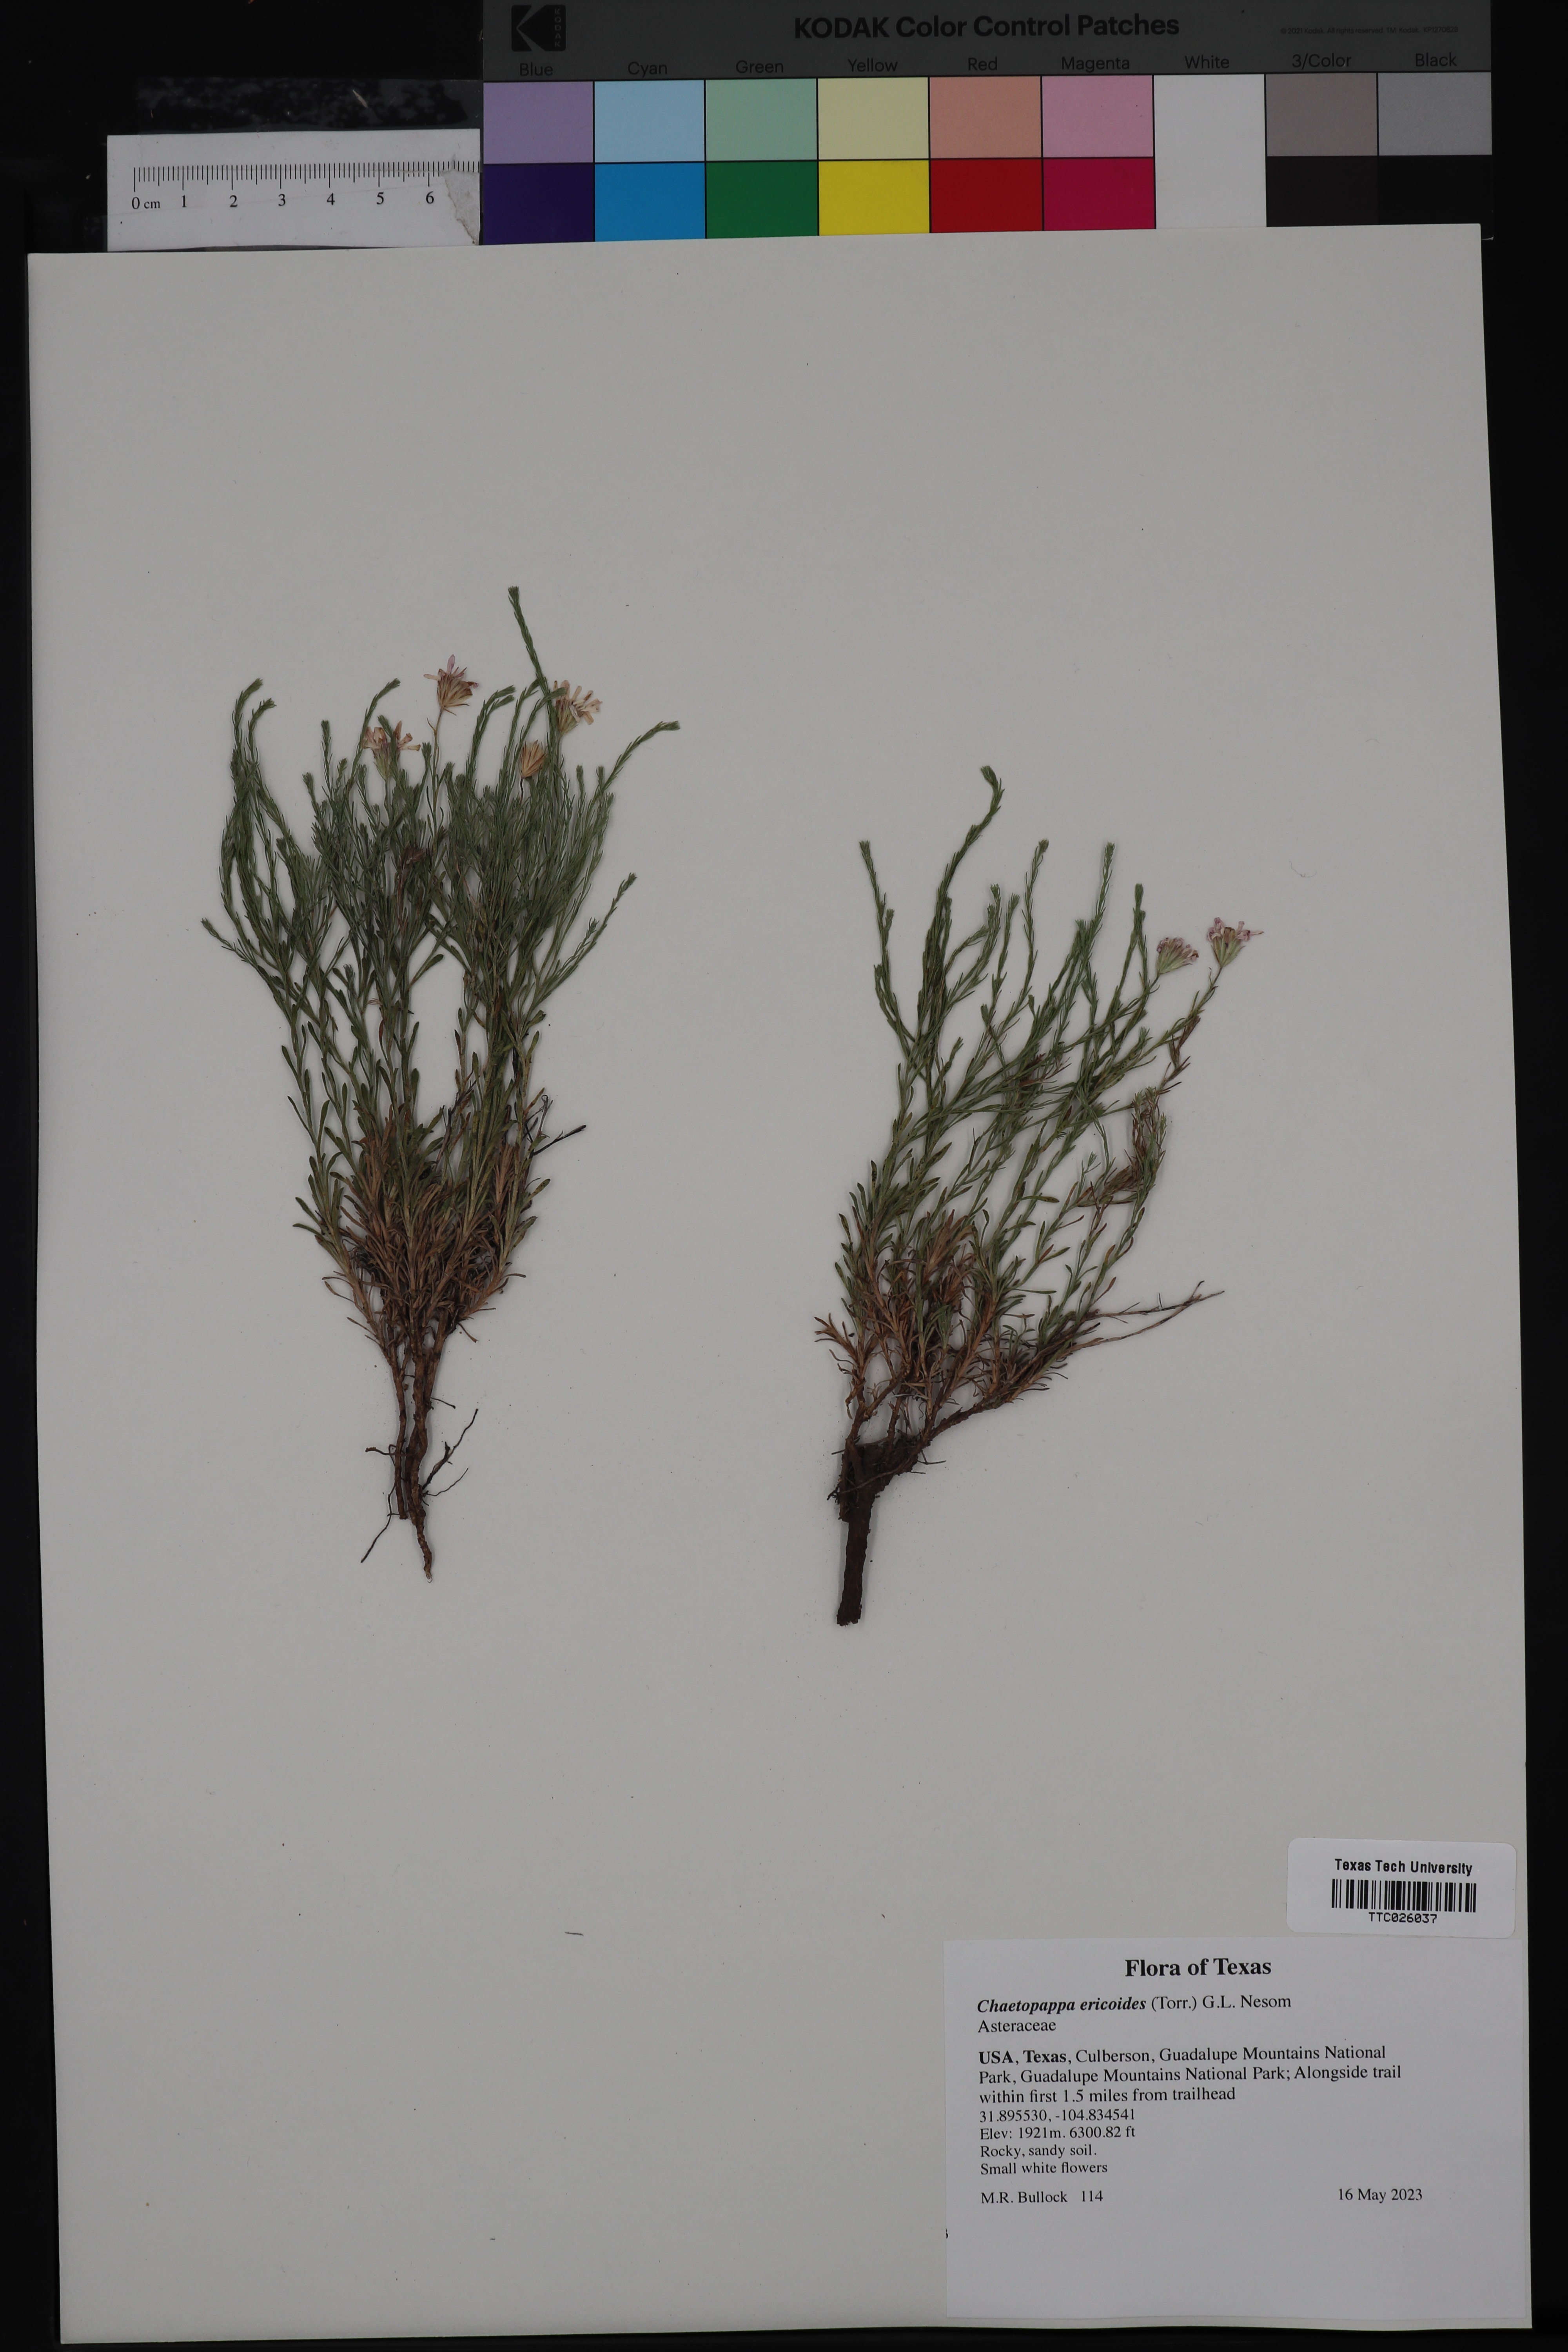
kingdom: Plantae
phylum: Tracheophyta
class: Magnoliopsida
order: Asterales
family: Asteraceae
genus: Chaetopappa
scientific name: Chaetopappa ericoides
